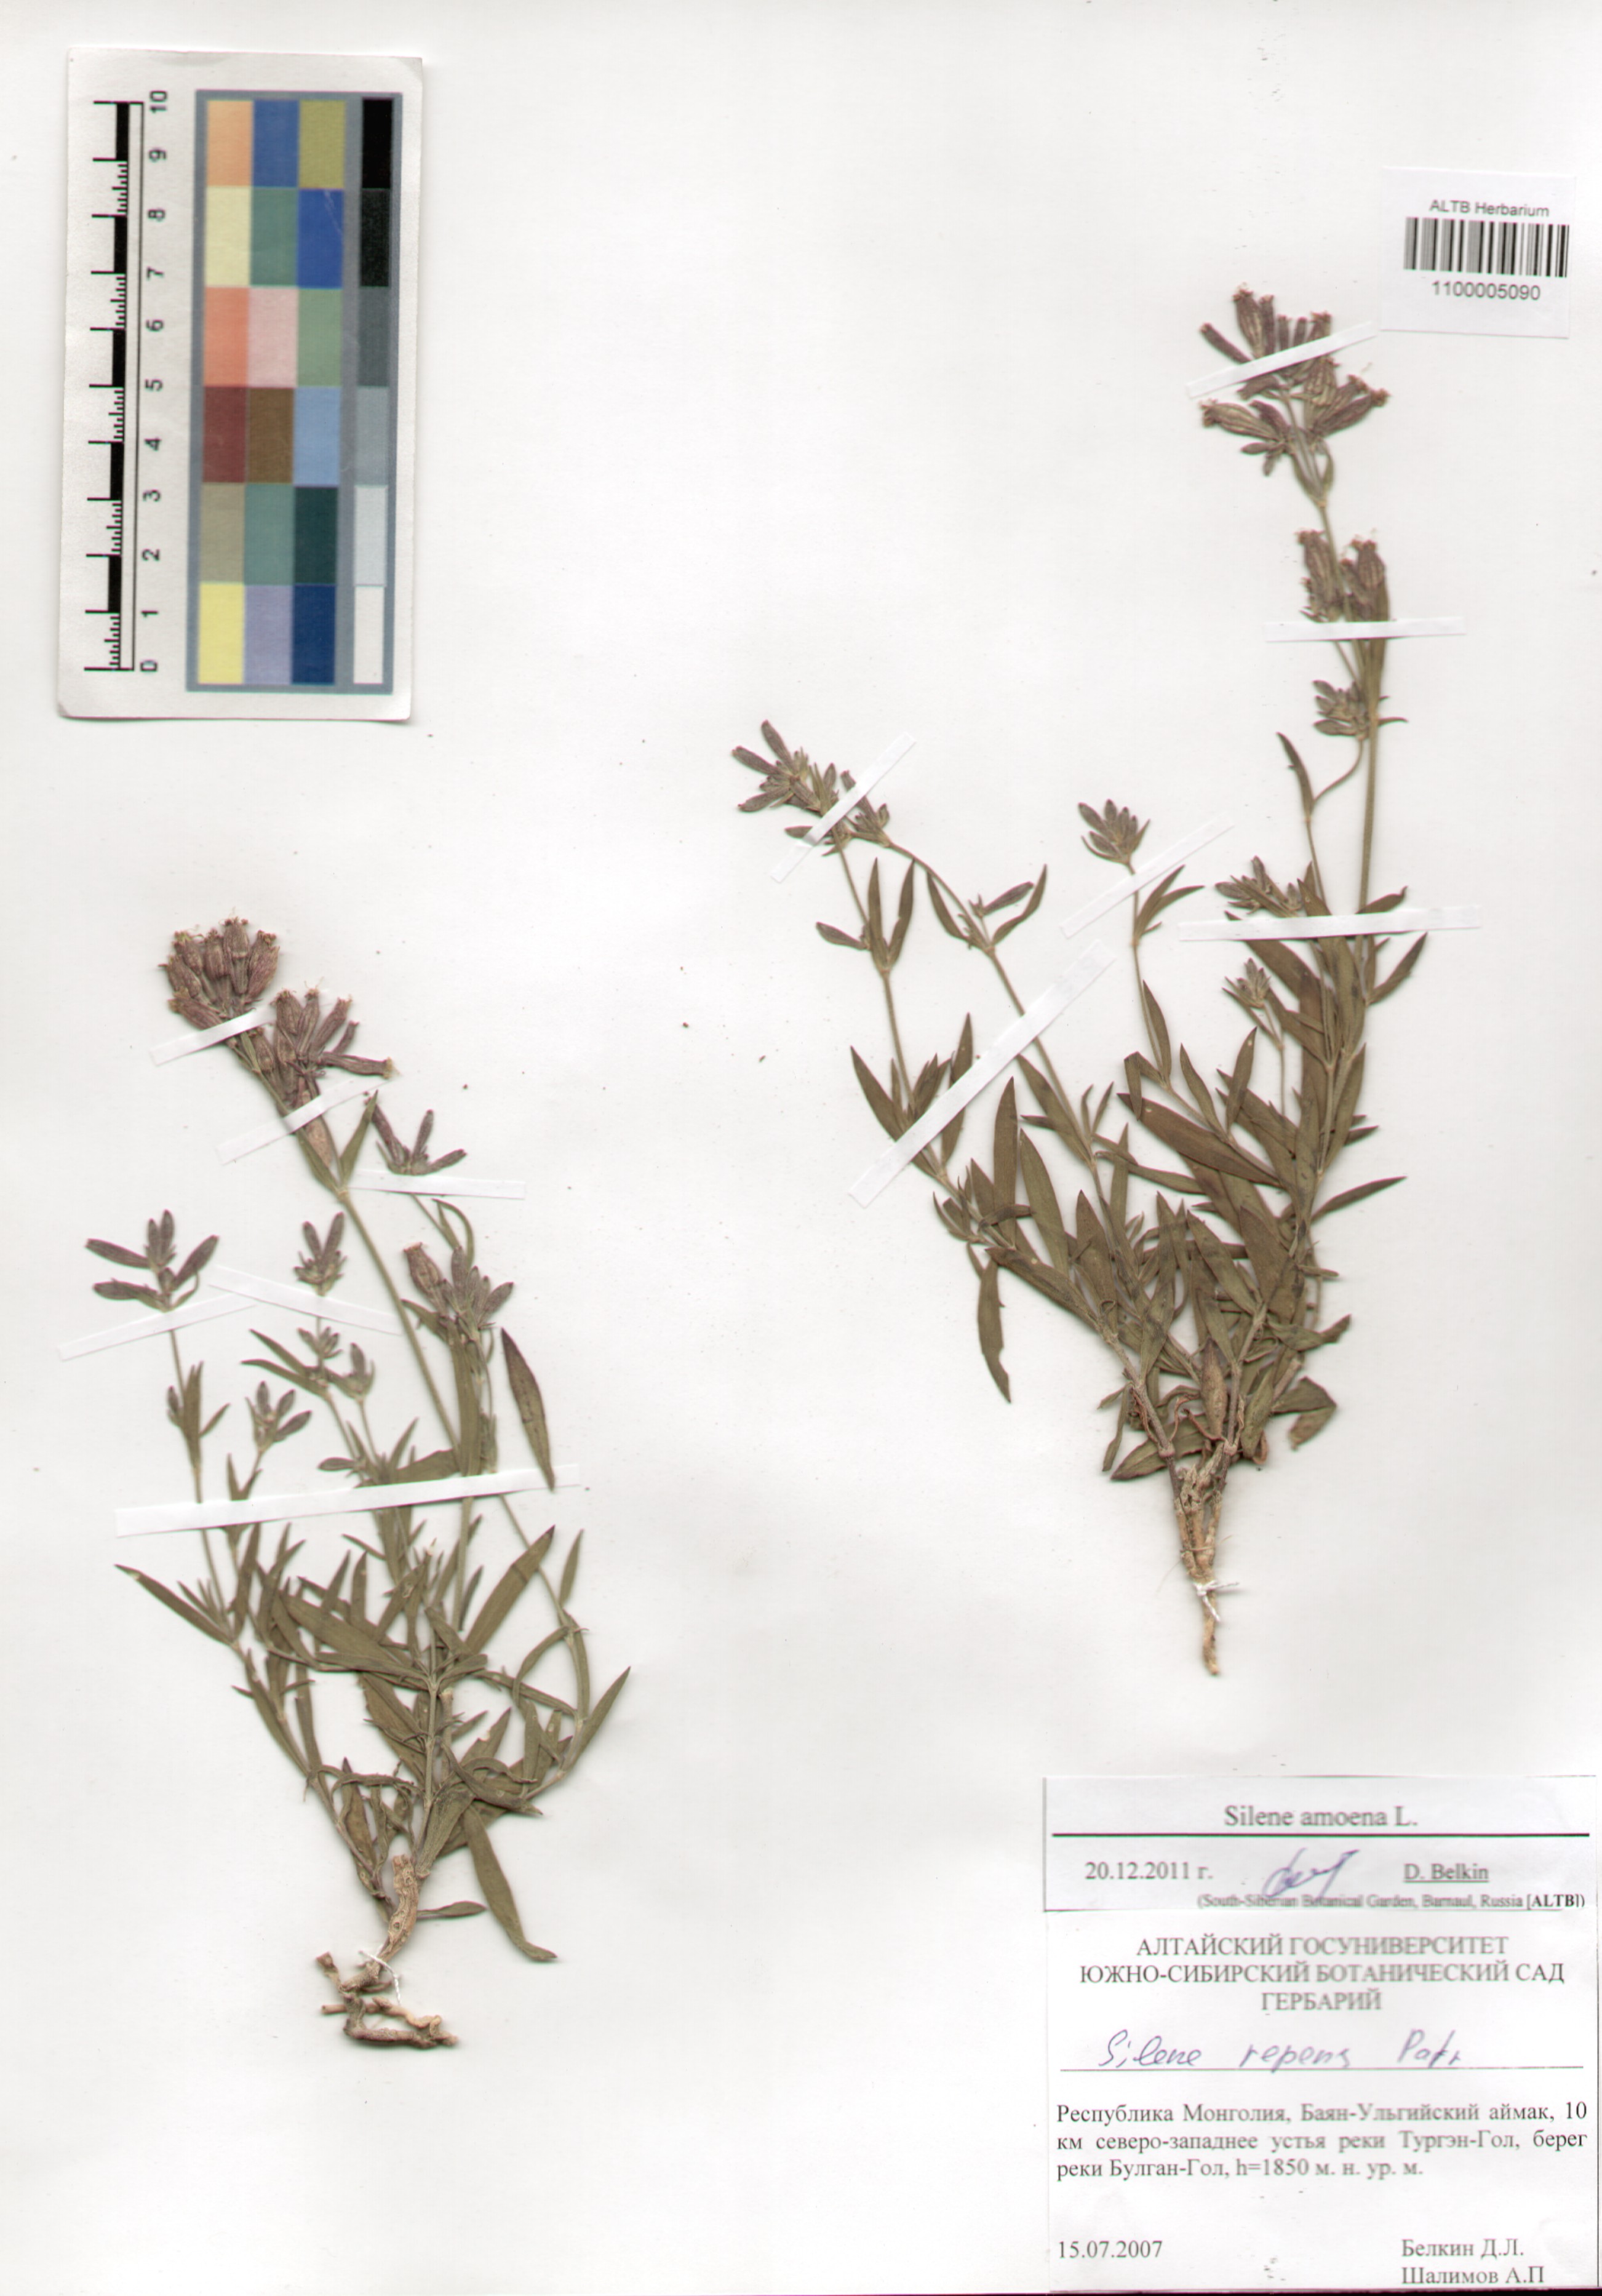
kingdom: Plantae
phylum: Tracheophyta
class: Magnoliopsida
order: Caryophyllales
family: Caryophyllaceae
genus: Silene
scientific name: Silene amoena
